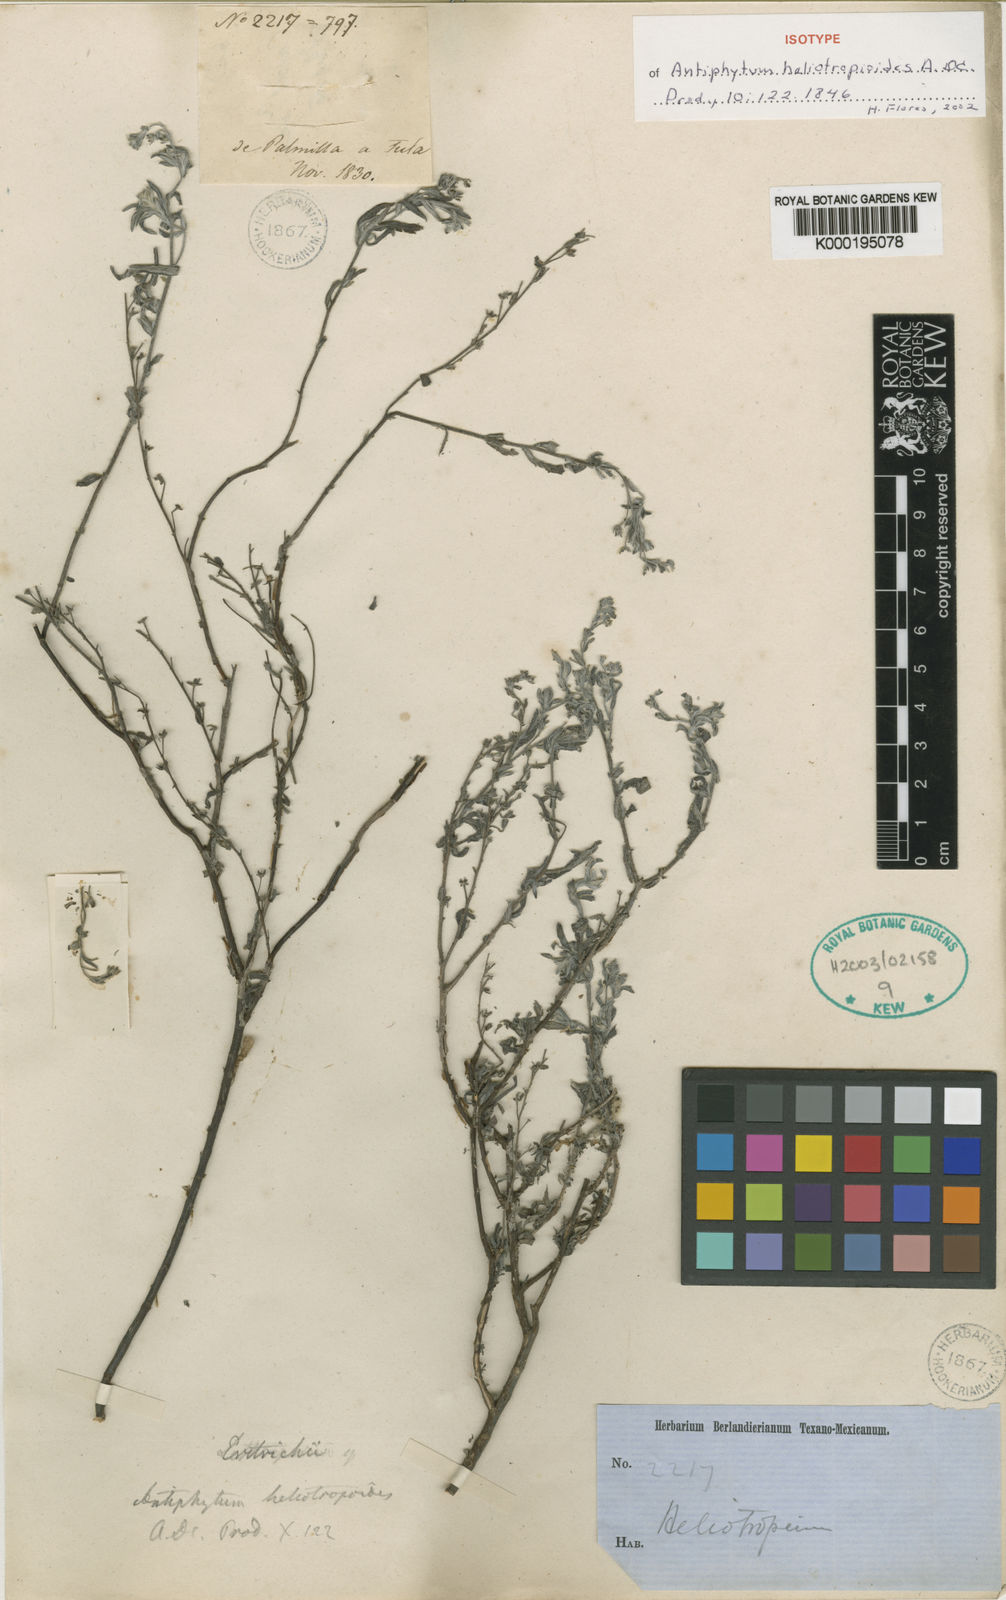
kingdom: Plantae
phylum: Tracheophyta
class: Magnoliopsida
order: Boraginales
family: Boraginaceae
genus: Antiphytum
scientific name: Antiphytum heliotropioides
